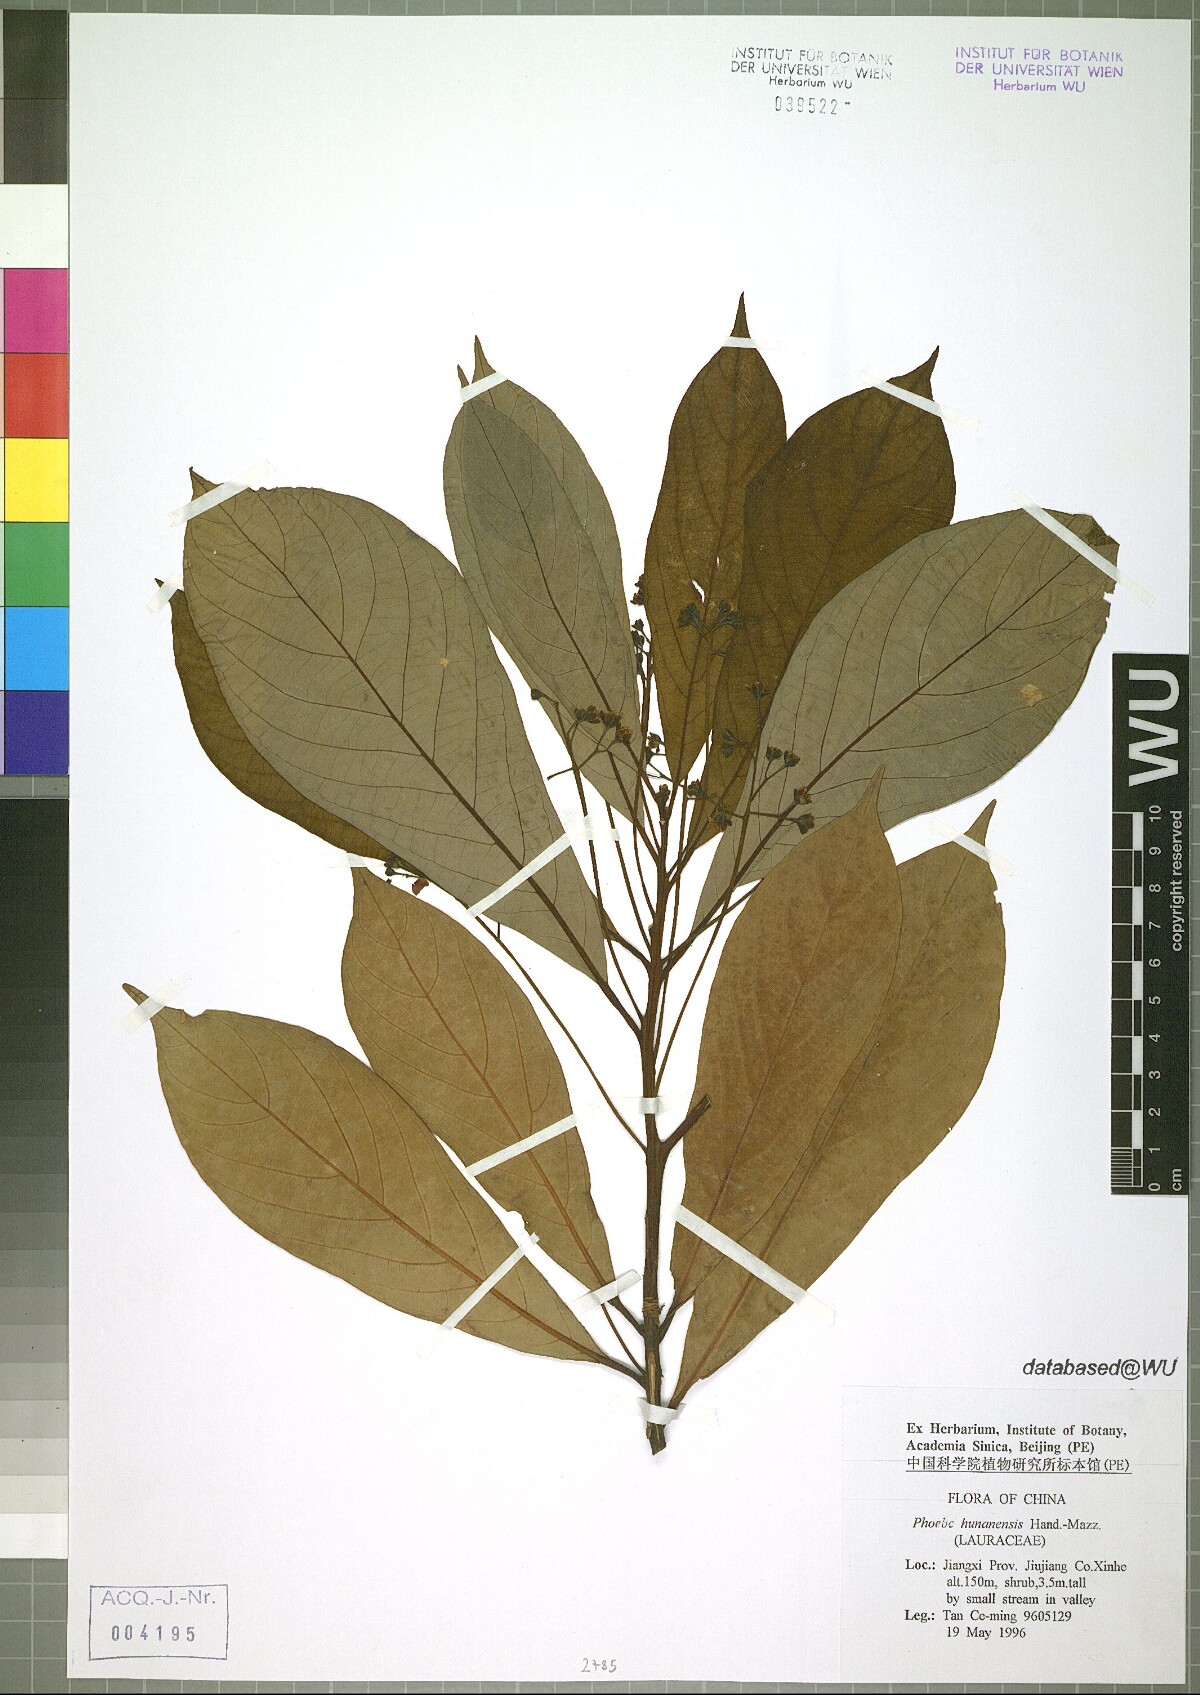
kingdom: Plantae
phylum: Tracheophyta
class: Magnoliopsida
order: Laurales
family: Lauraceae
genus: Phoebe
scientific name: Phoebe hunanensis
